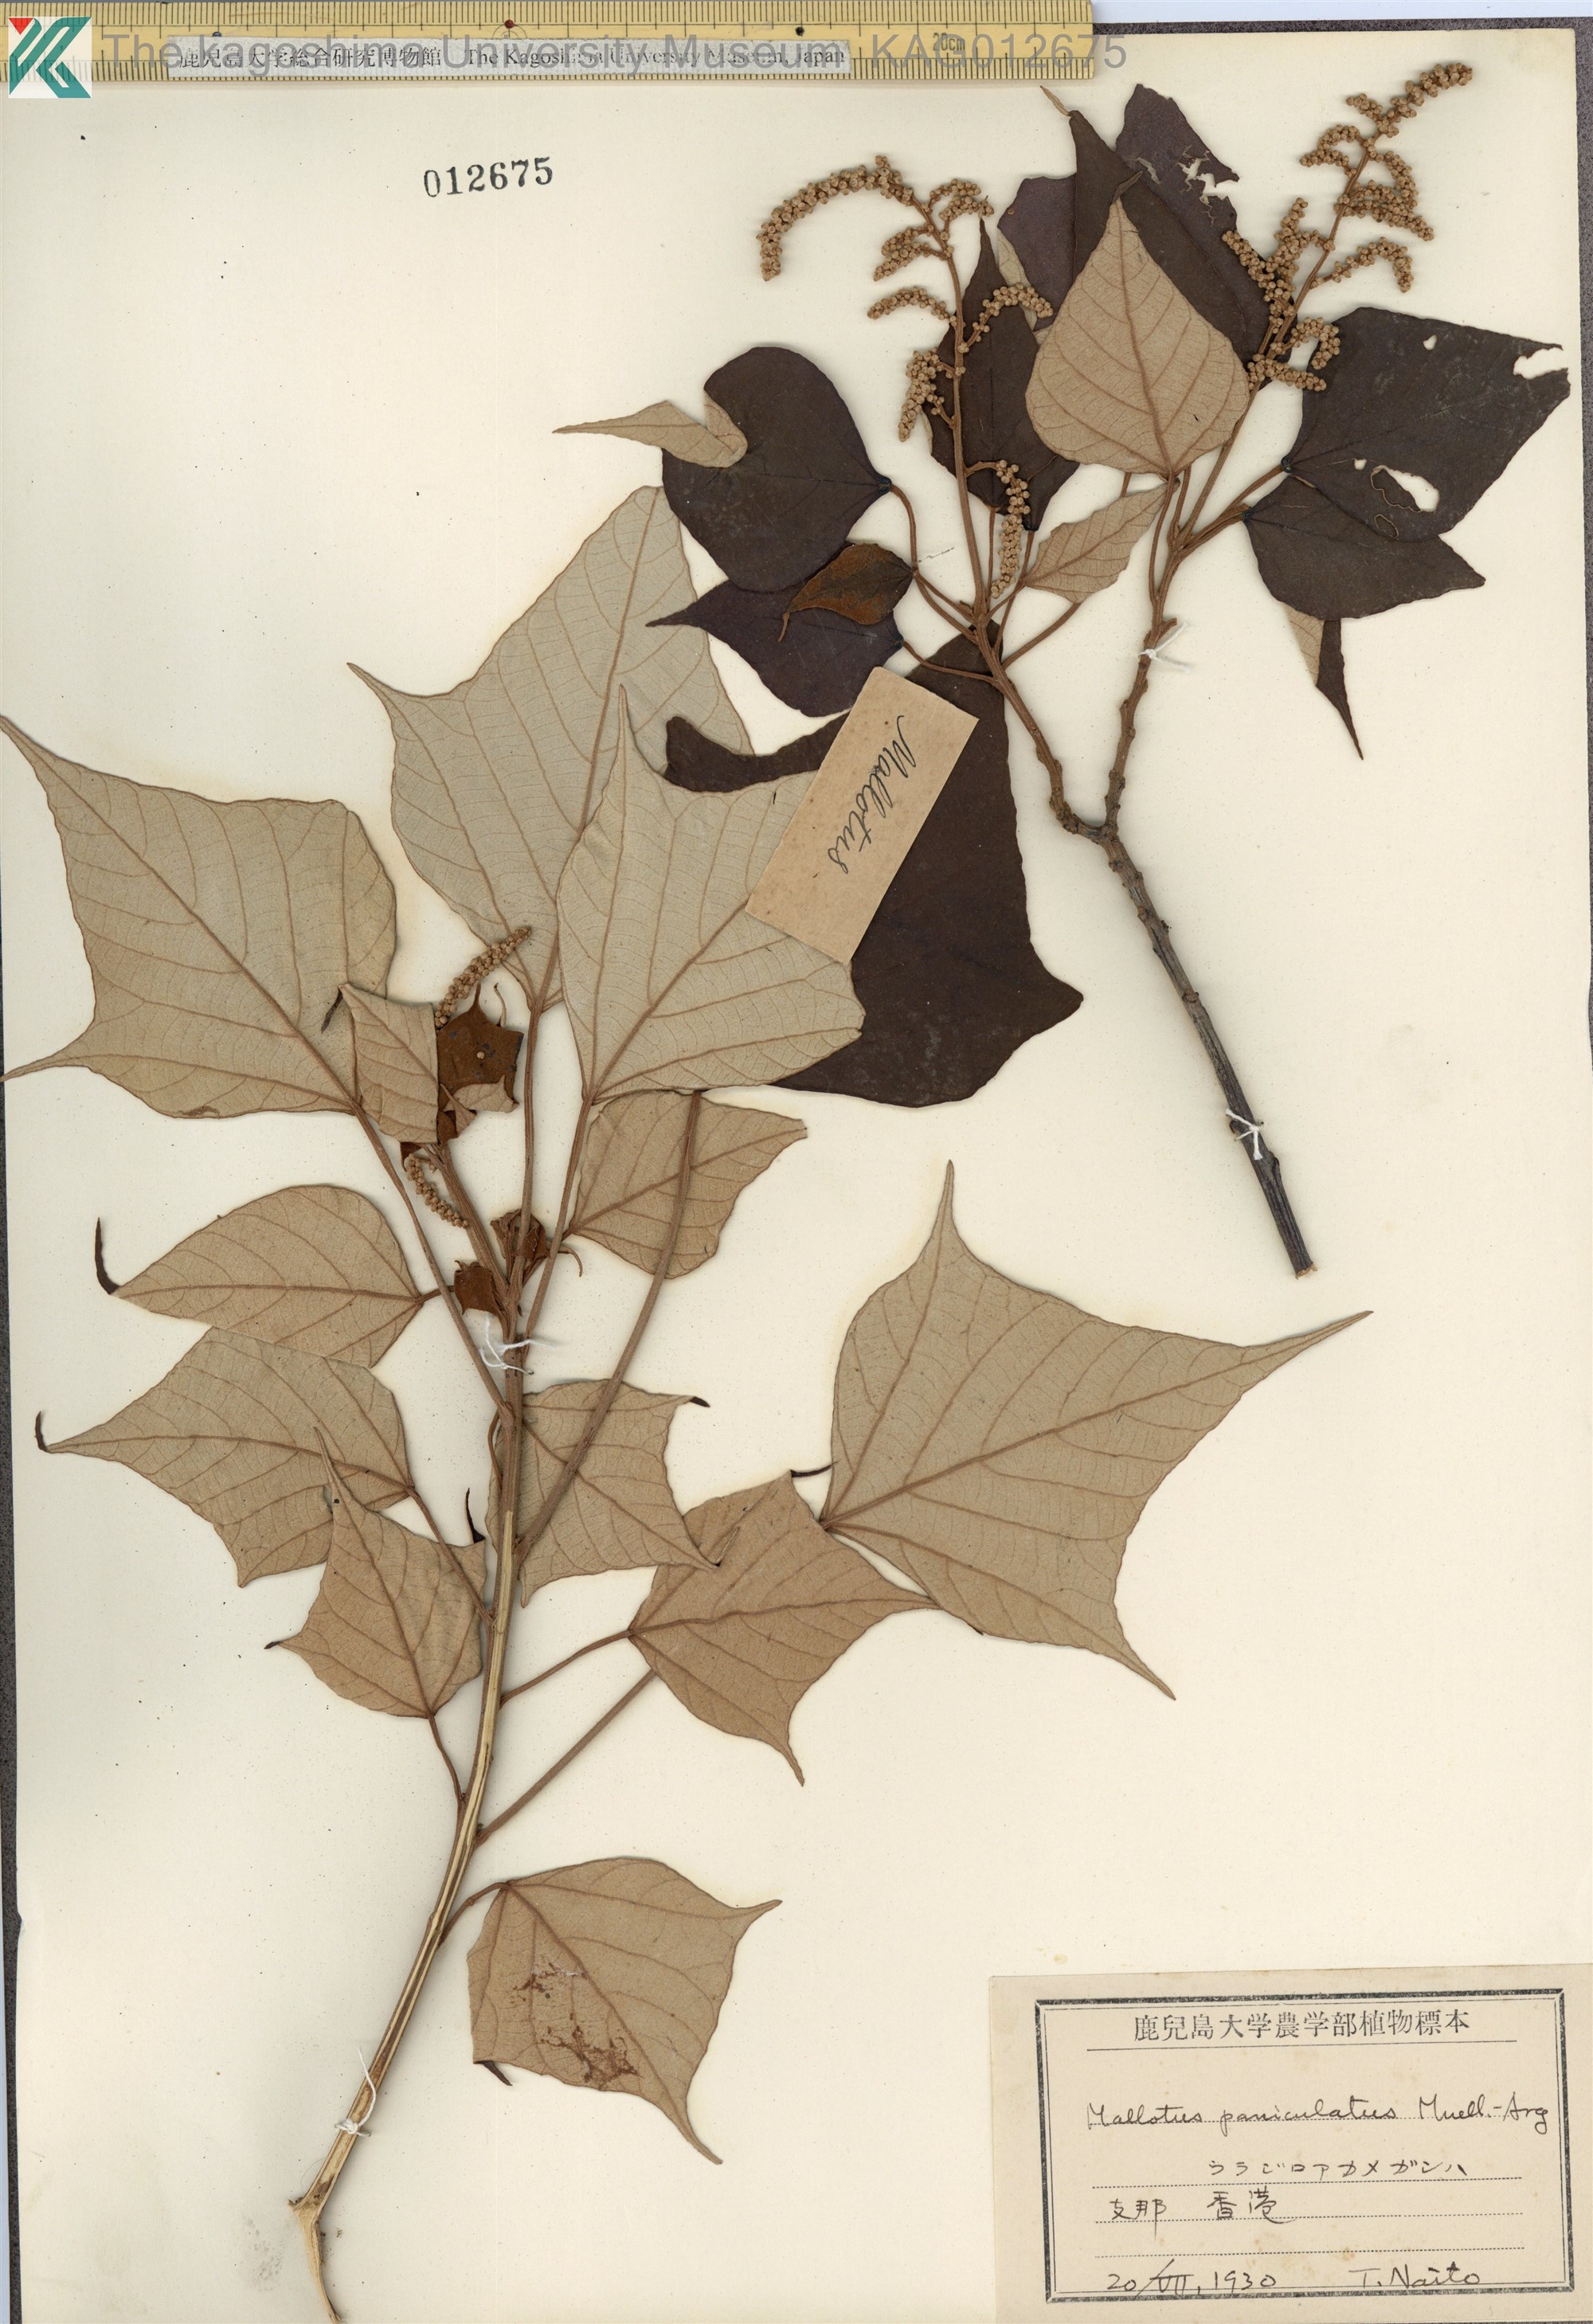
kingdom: Plantae
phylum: Tracheophyta
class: Magnoliopsida
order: Malpighiales
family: Euphorbiaceae
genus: Mallotus
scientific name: Mallotus paniculatus
